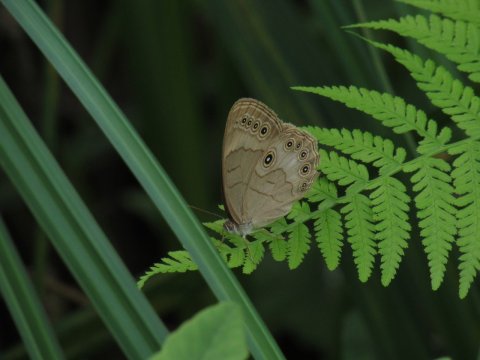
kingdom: Animalia
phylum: Arthropoda
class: Insecta
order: Lepidoptera
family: Nymphalidae
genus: Lethe
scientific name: Lethe eurydice
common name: Appalachian Eyed Brown
